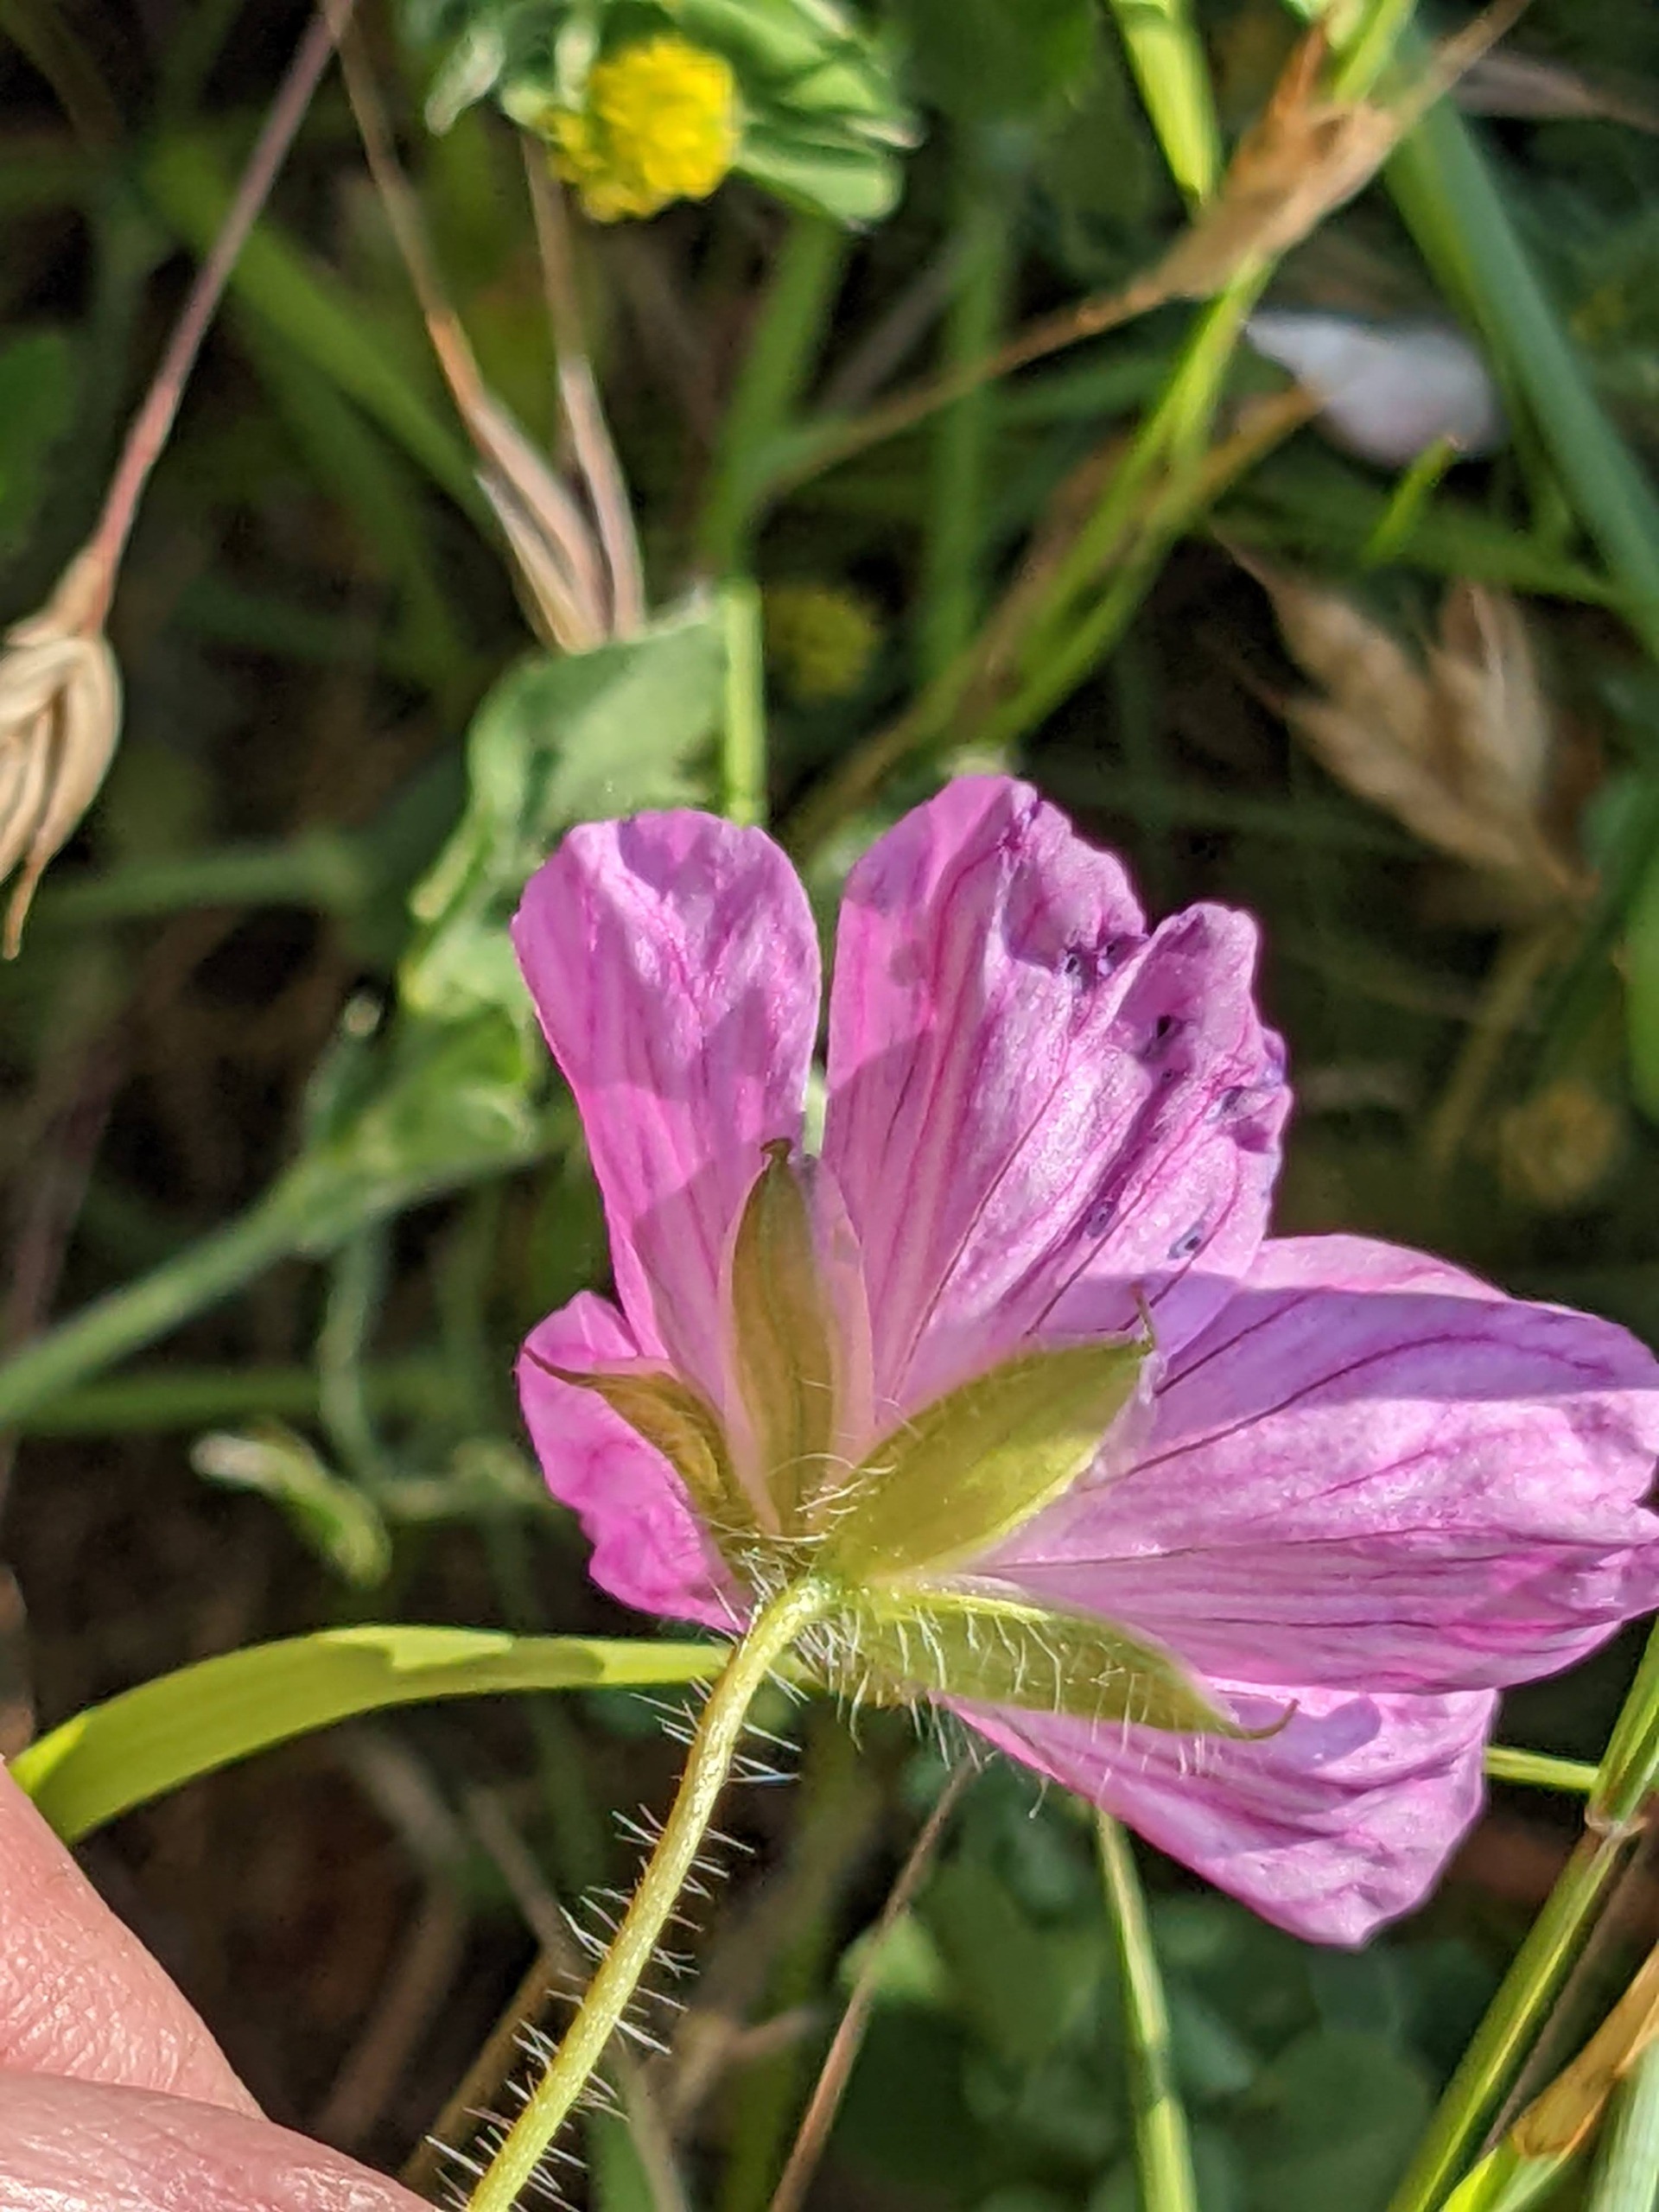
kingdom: Plantae
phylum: Tracheophyta
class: Magnoliopsida
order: Geraniales
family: Geraniaceae
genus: Geranium
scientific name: Geranium sanguineum
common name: Blodrød storkenæb
